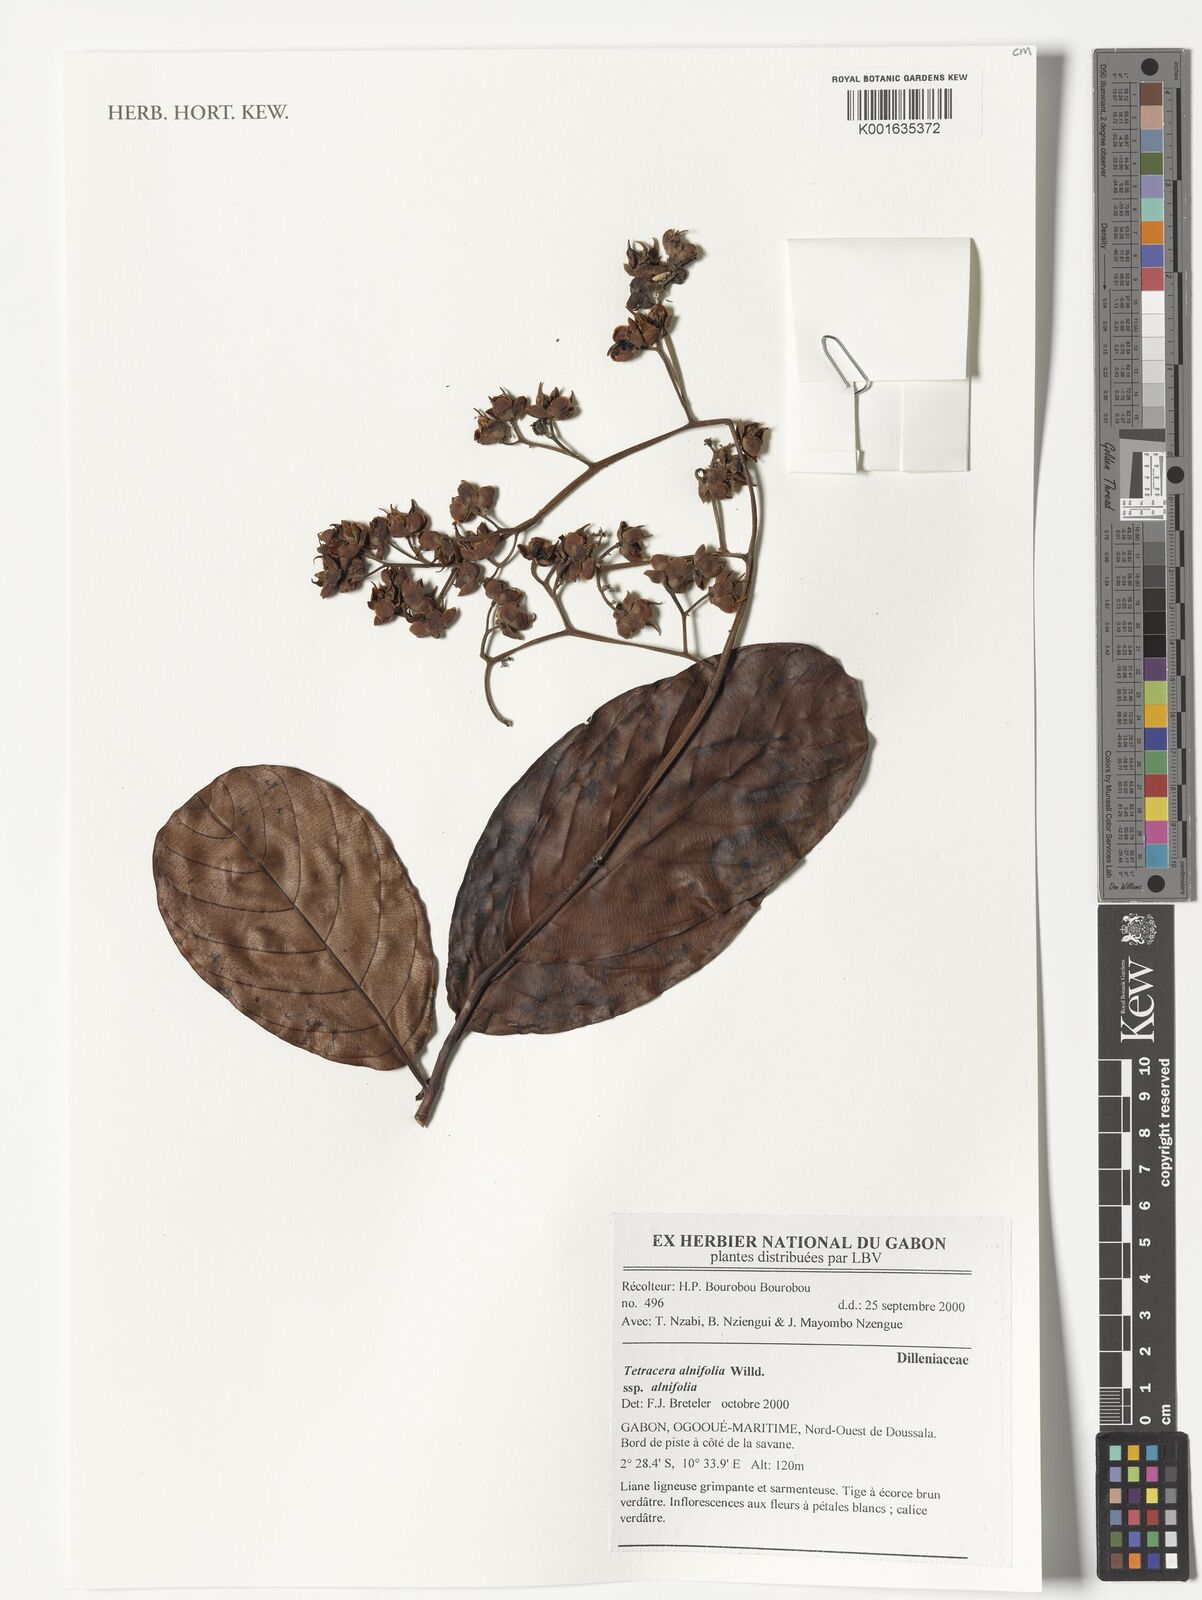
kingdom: Plantae
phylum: Tracheophyta
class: Magnoliopsida
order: Dilleniales
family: Dilleniaceae
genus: Tetracera
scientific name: Tetracera alnifolia
